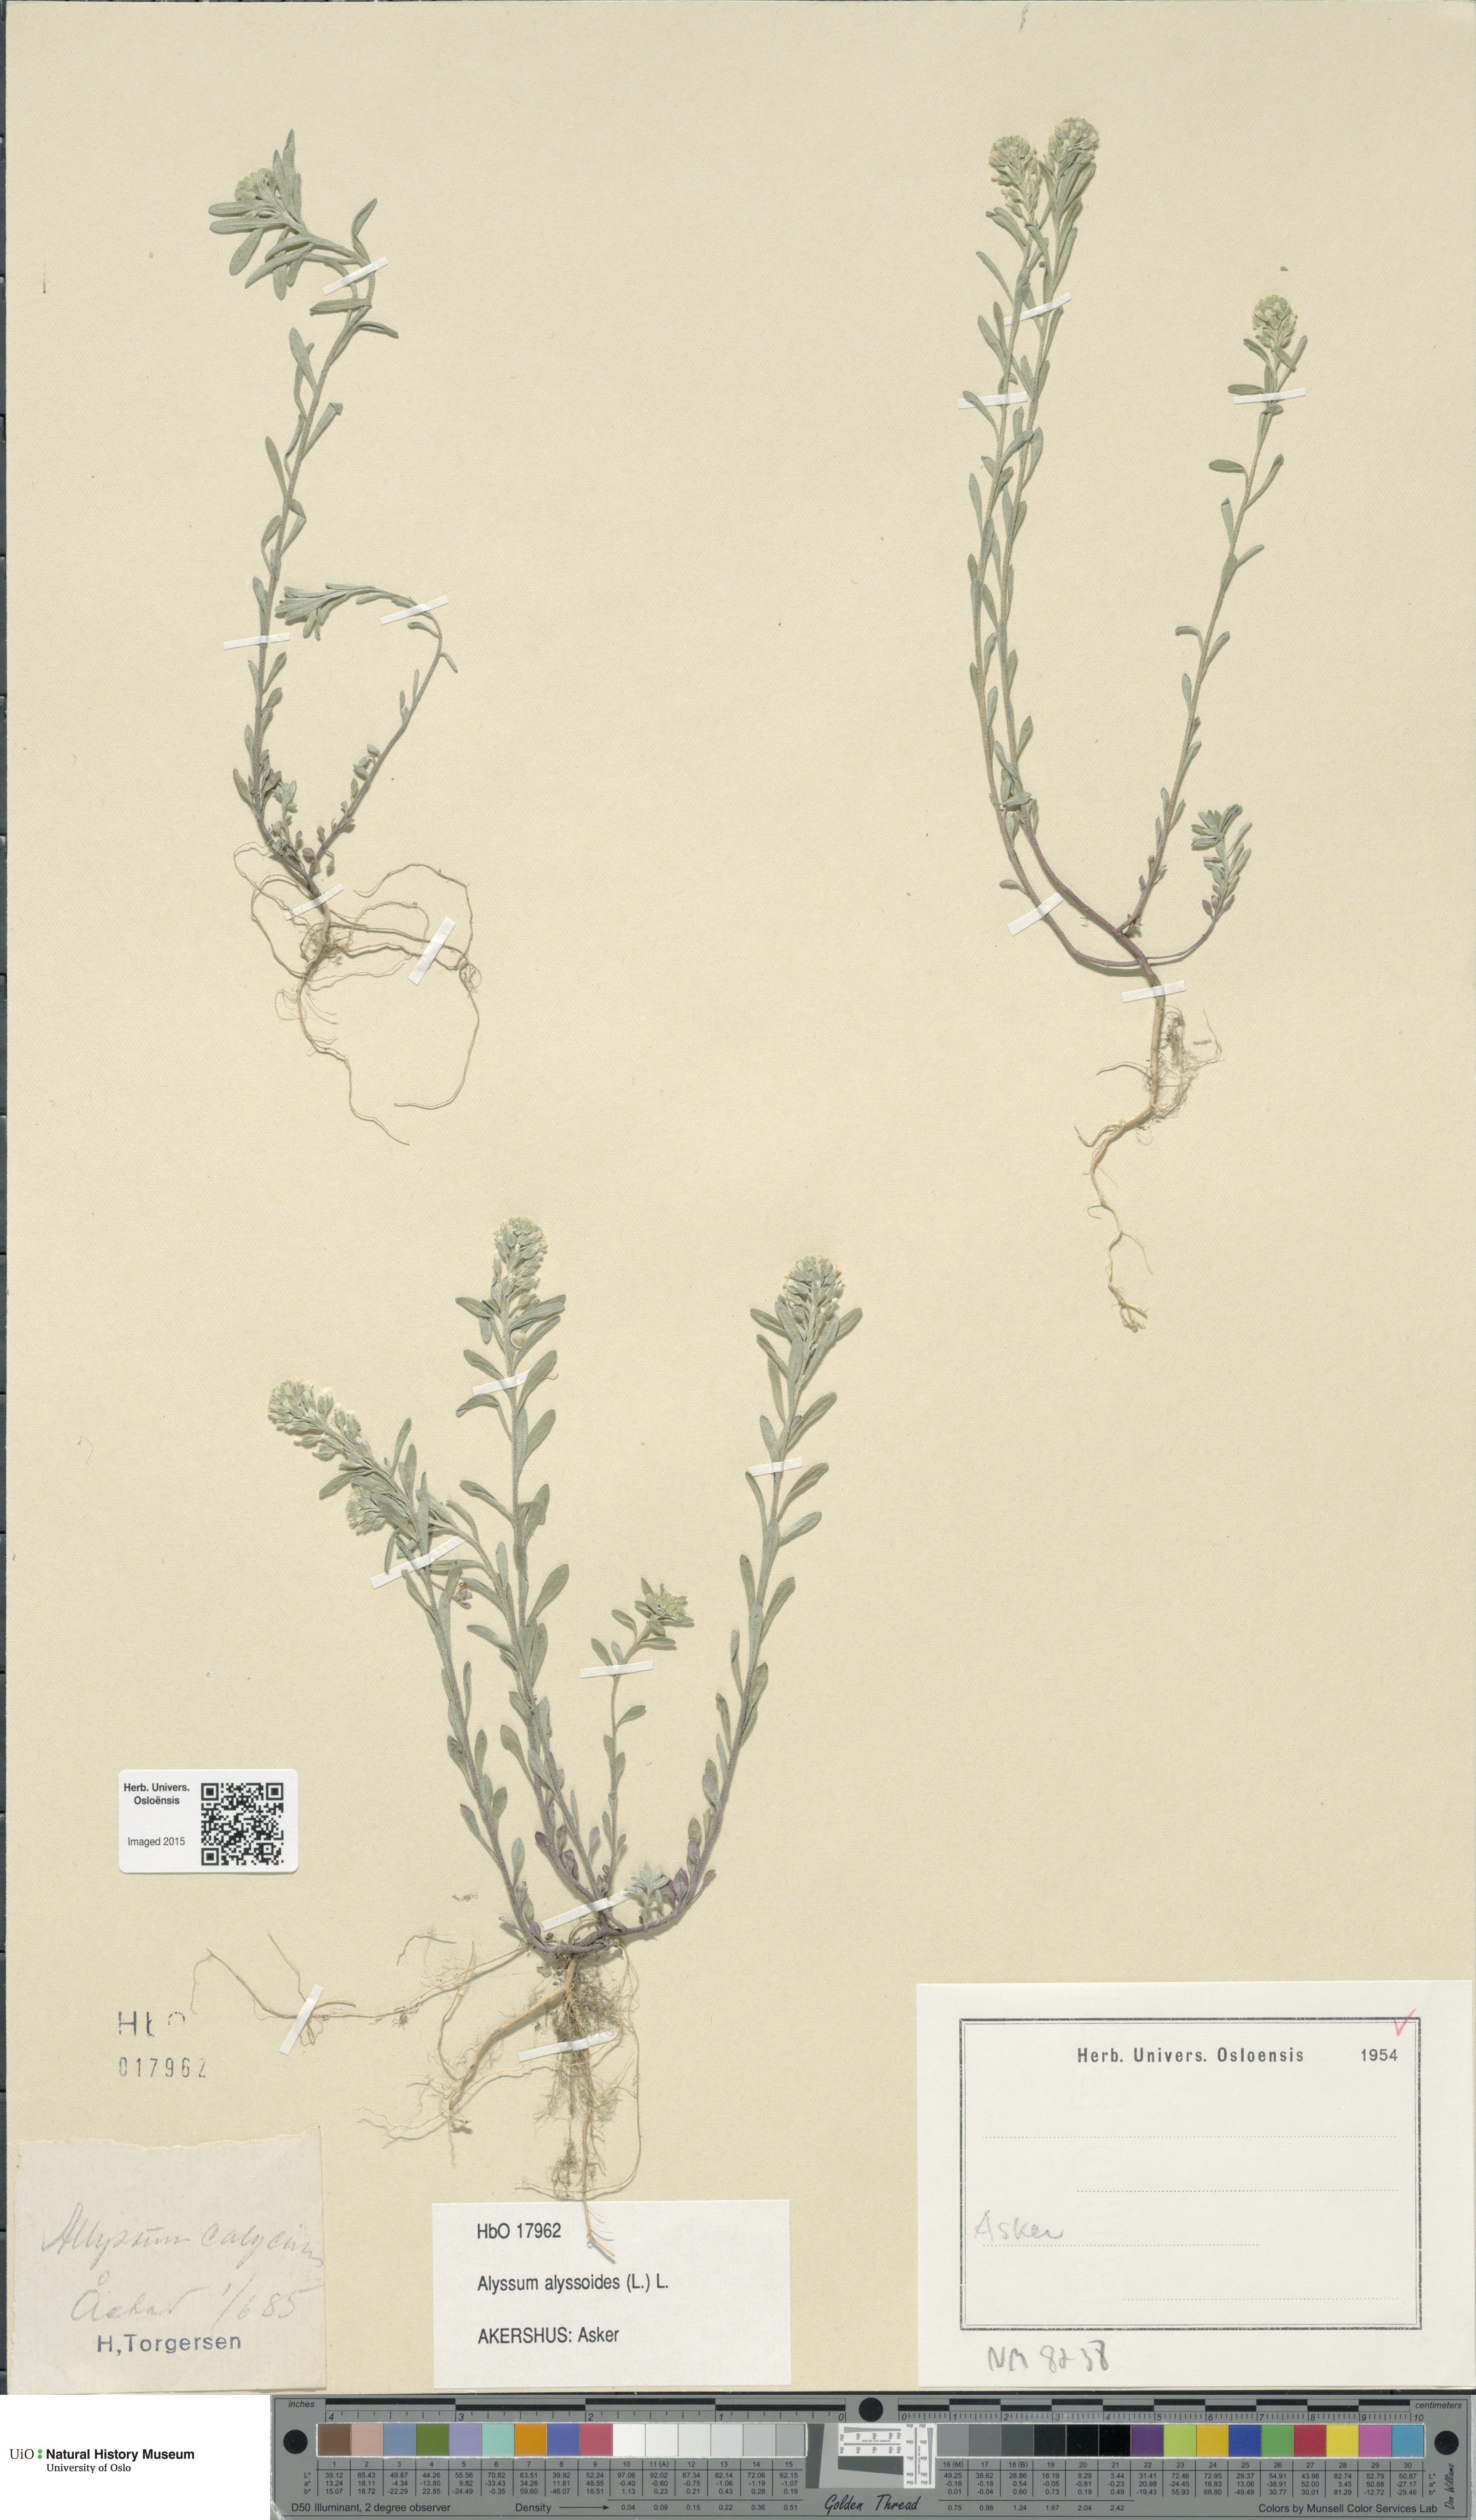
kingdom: Plantae
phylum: Tracheophyta
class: Magnoliopsida
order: Brassicales
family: Brassicaceae
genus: Alyssum
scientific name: Alyssum alyssoides
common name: Small alison
